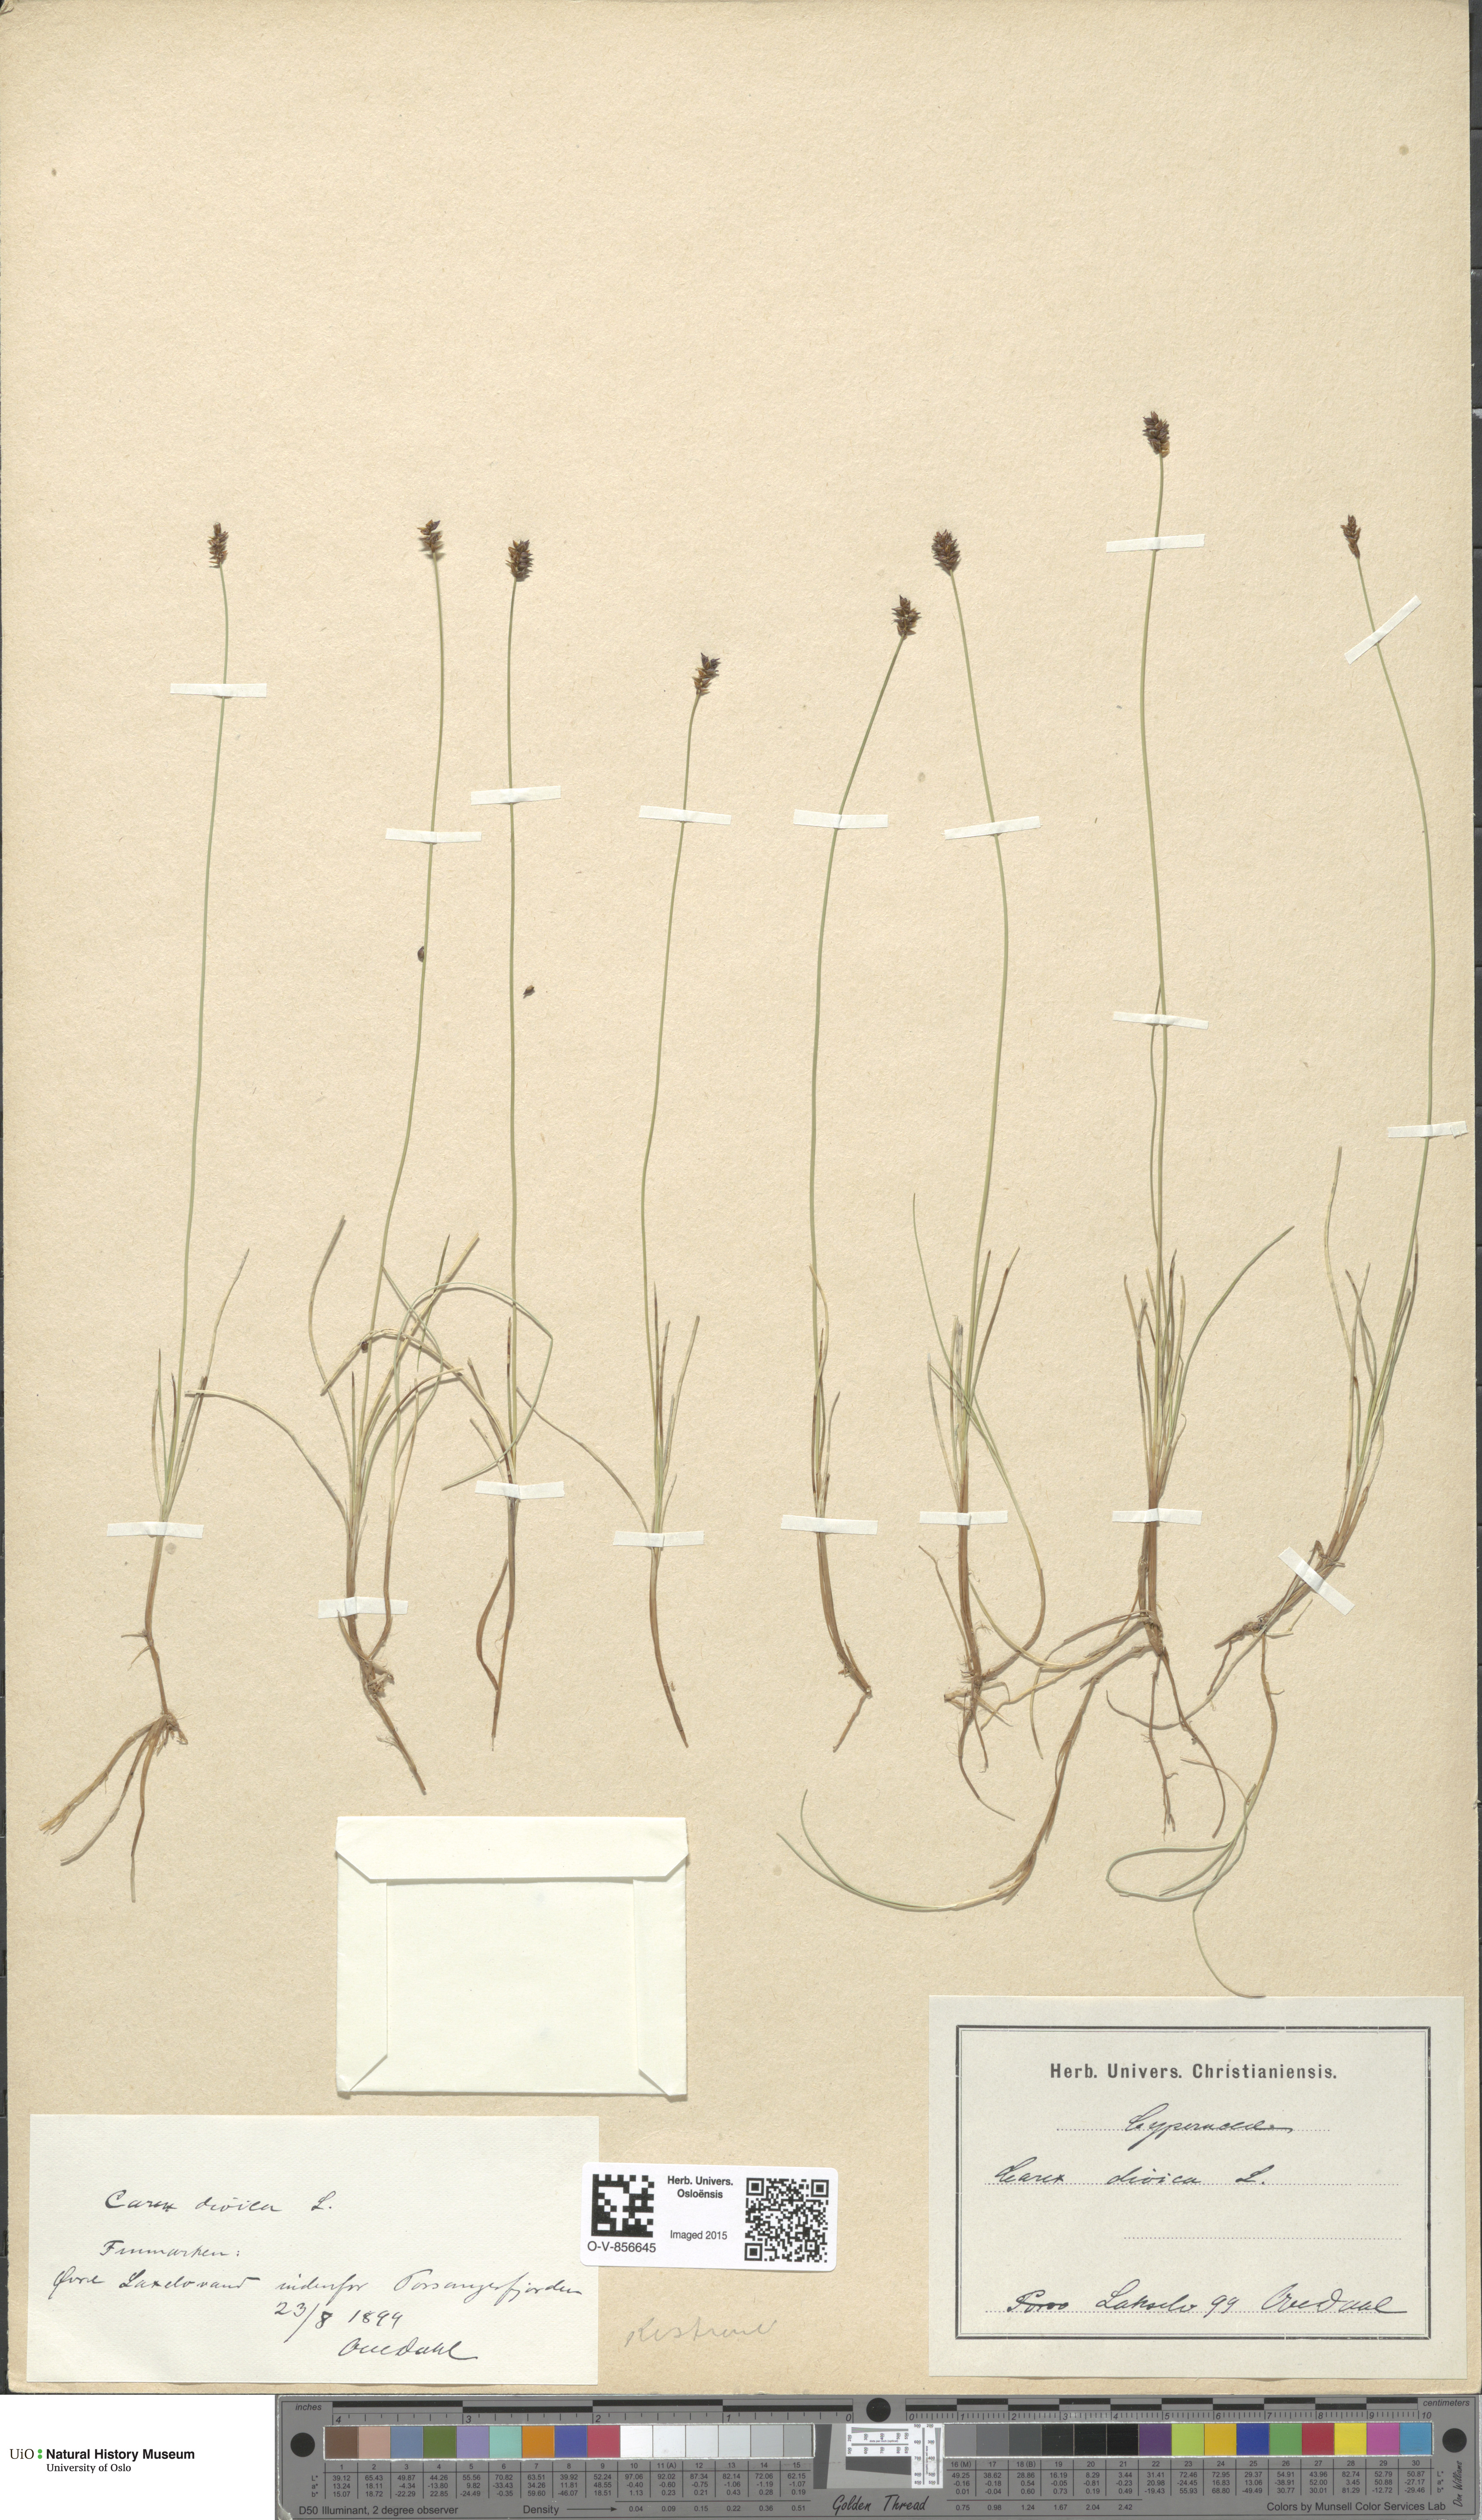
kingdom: Plantae
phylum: Tracheophyta
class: Liliopsida
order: Poales
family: Cyperaceae
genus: Carex
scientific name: Carex dioica
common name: Dioecious sedge
